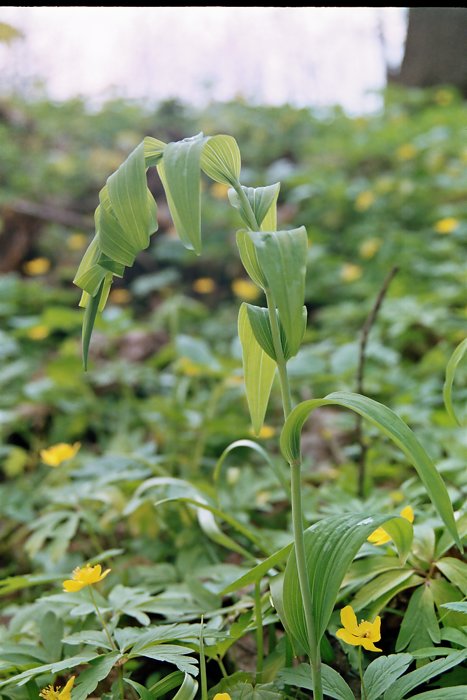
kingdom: Plantae
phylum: Tracheophyta
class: Liliopsida
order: Asparagales
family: Asparagaceae
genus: Polygonatum
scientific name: Polygonatum
